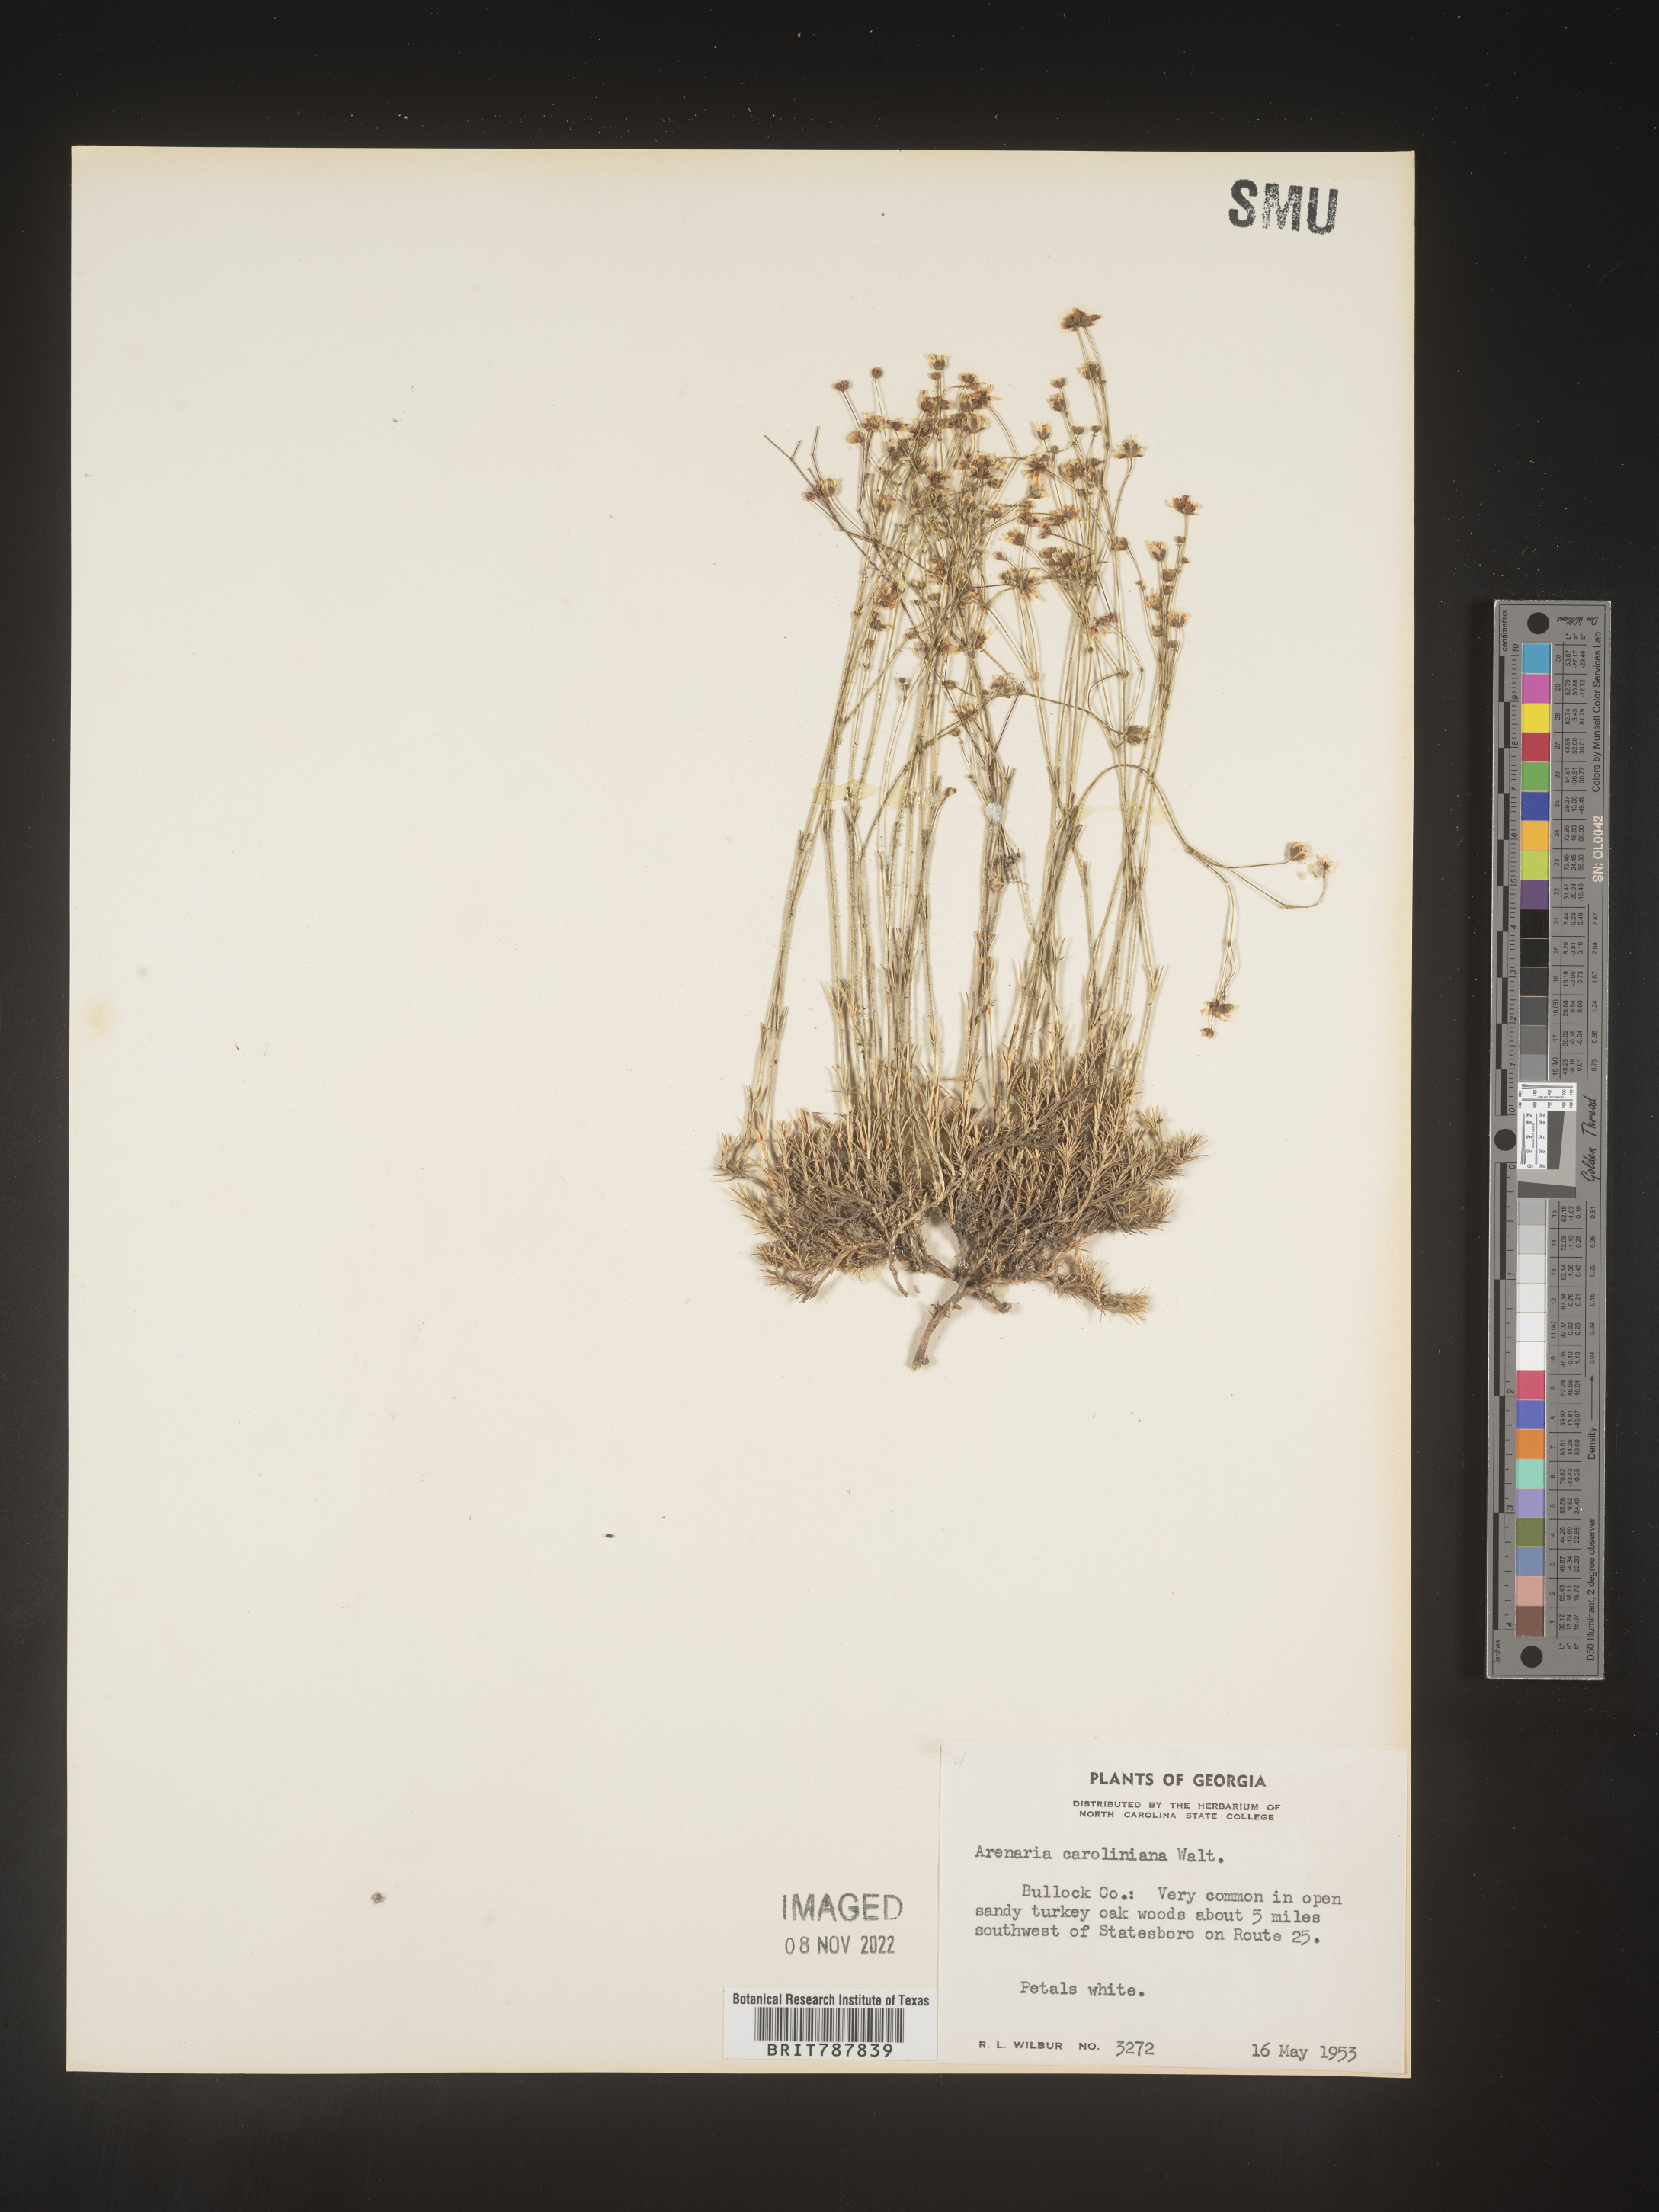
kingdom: Plantae
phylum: Tracheophyta
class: Magnoliopsida
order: Caryophyllales
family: Caryophyllaceae
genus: Arenaria
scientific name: Arenaria
